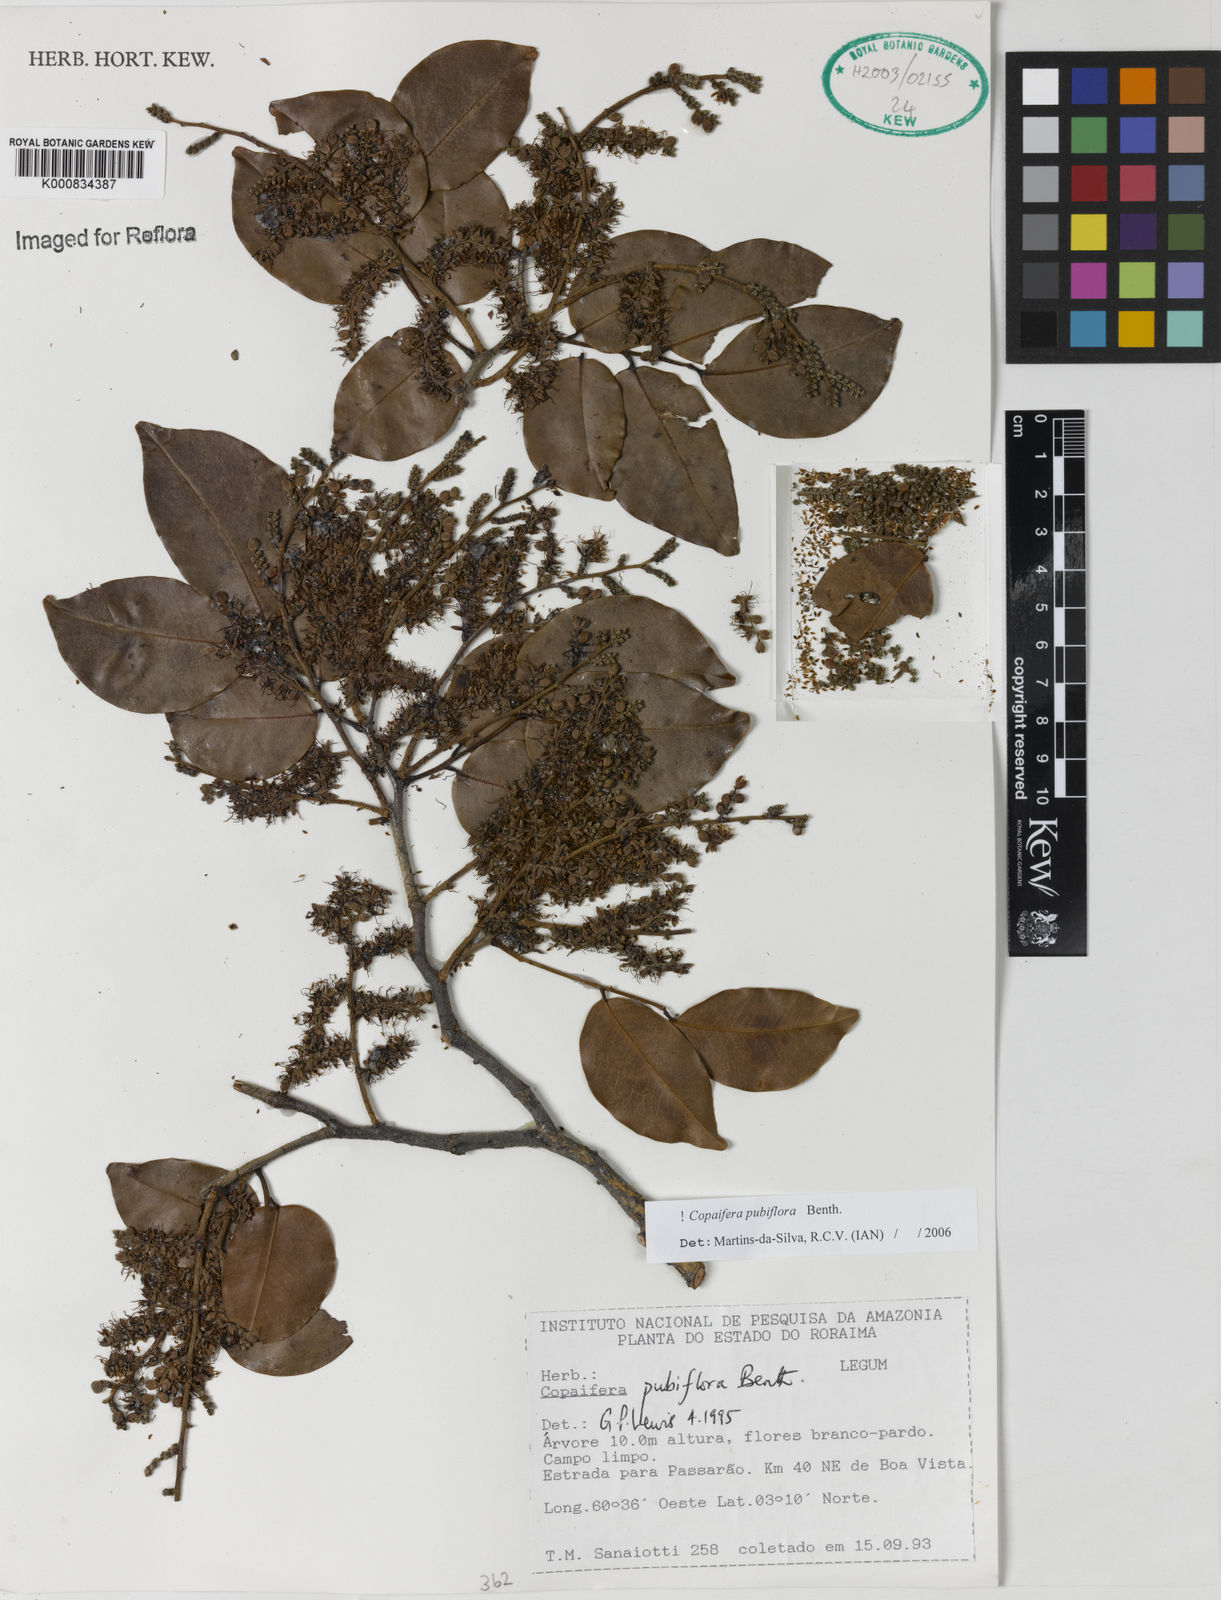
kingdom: Plantae
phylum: Tracheophyta
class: Magnoliopsida
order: Fabales
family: Fabaceae
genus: Copaifera
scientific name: Copaifera pubiflora
